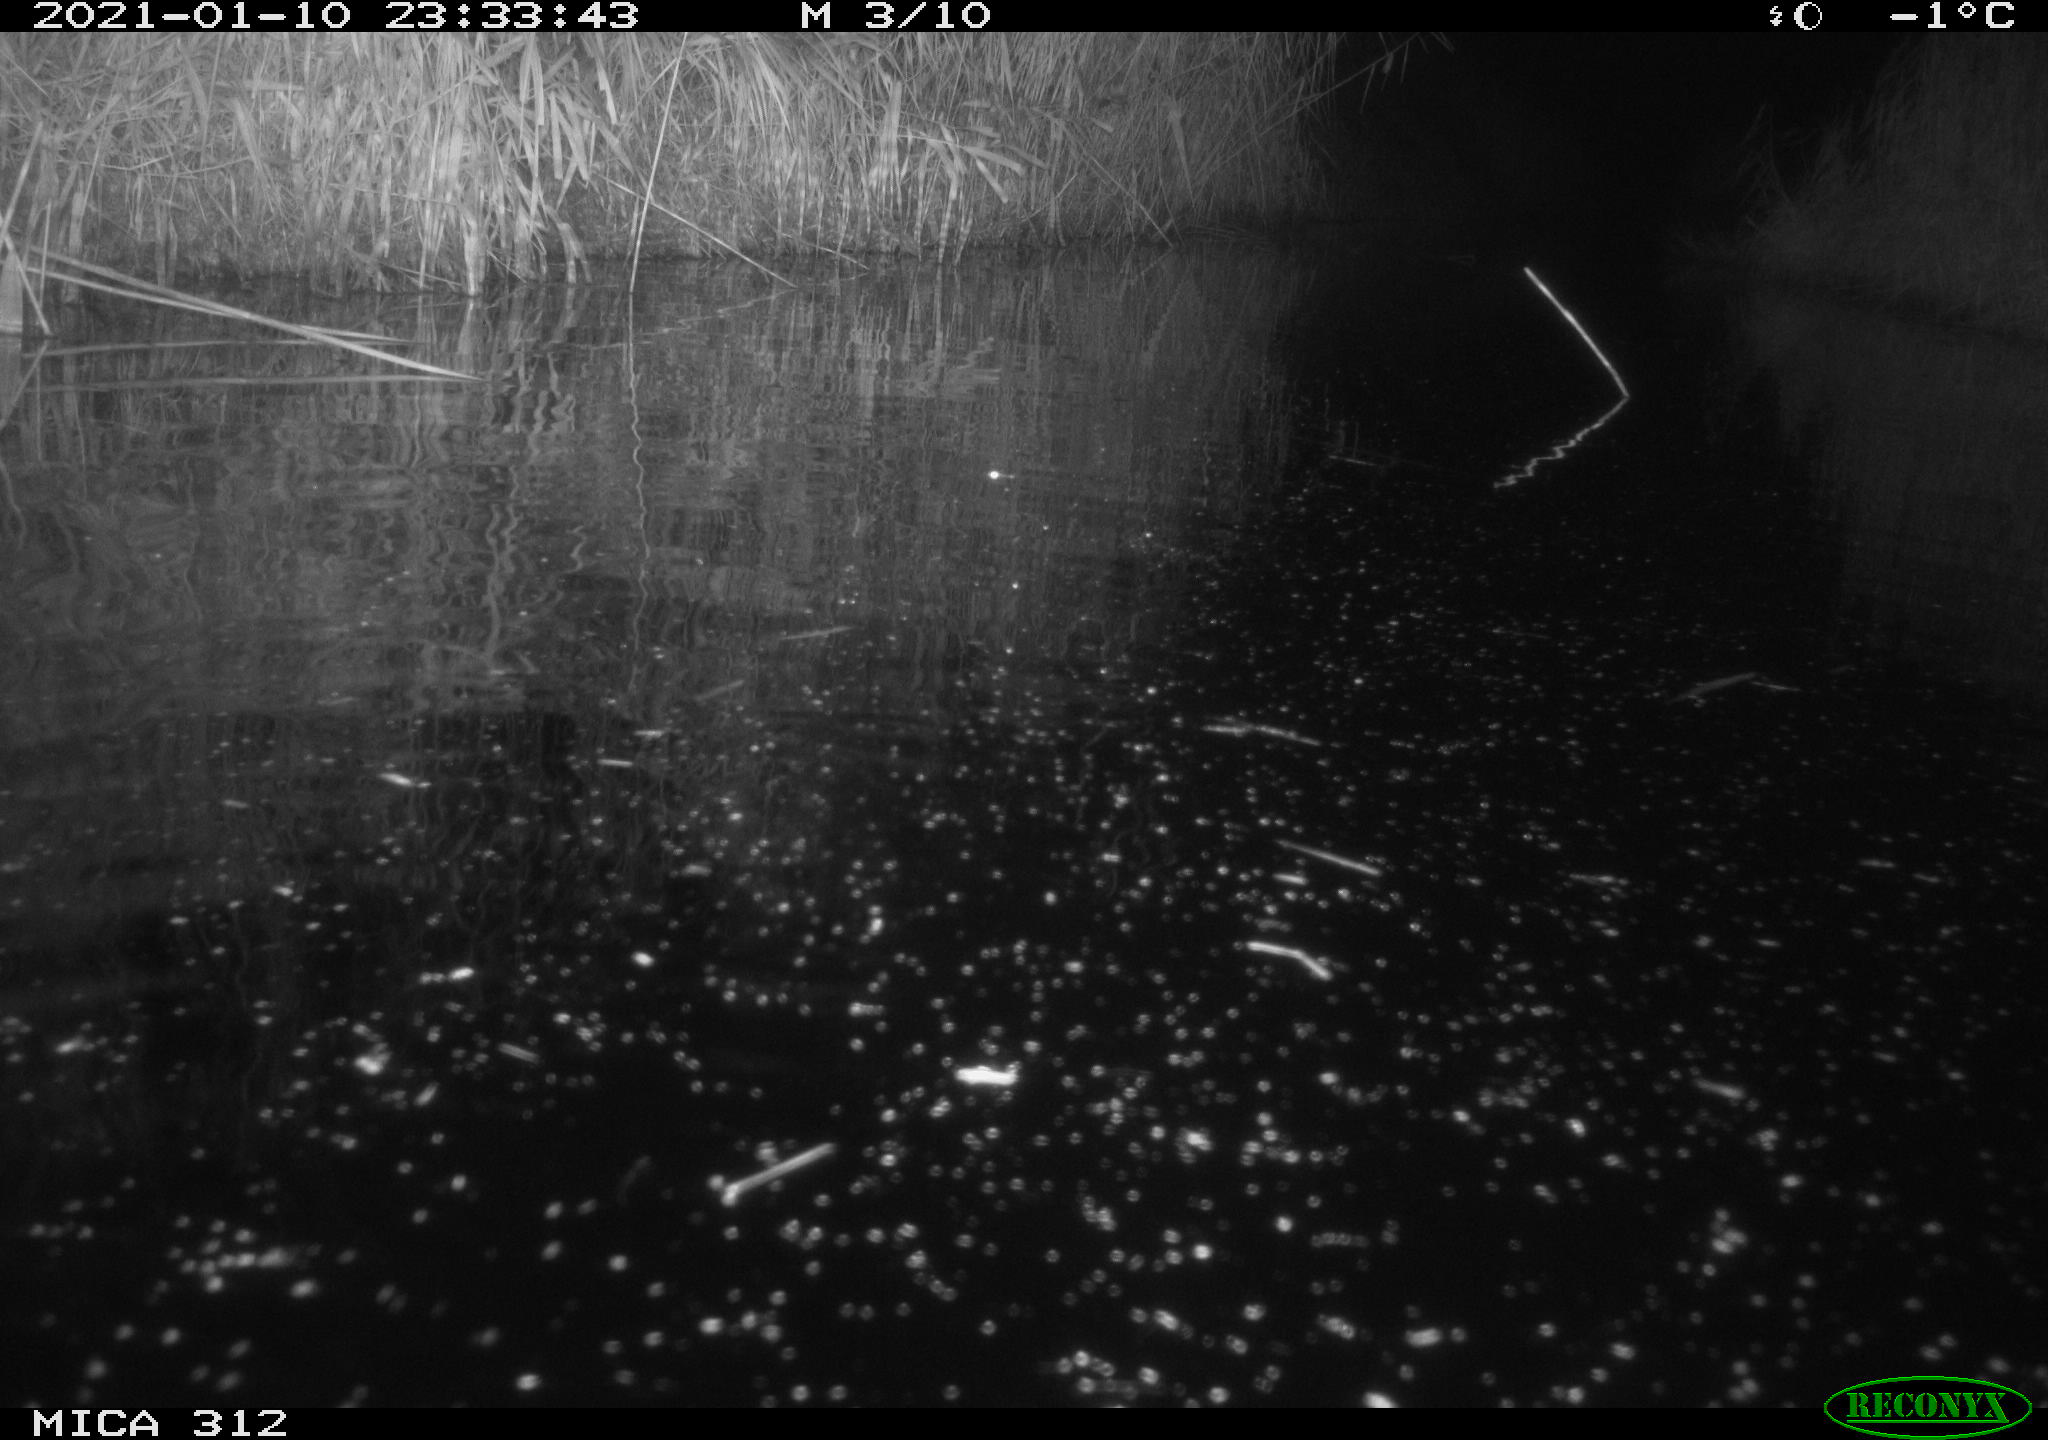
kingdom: Animalia
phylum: Chordata
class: Mammalia
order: Rodentia
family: Muridae
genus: Rattus
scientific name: Rattus norvegicus
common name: Brown rat
